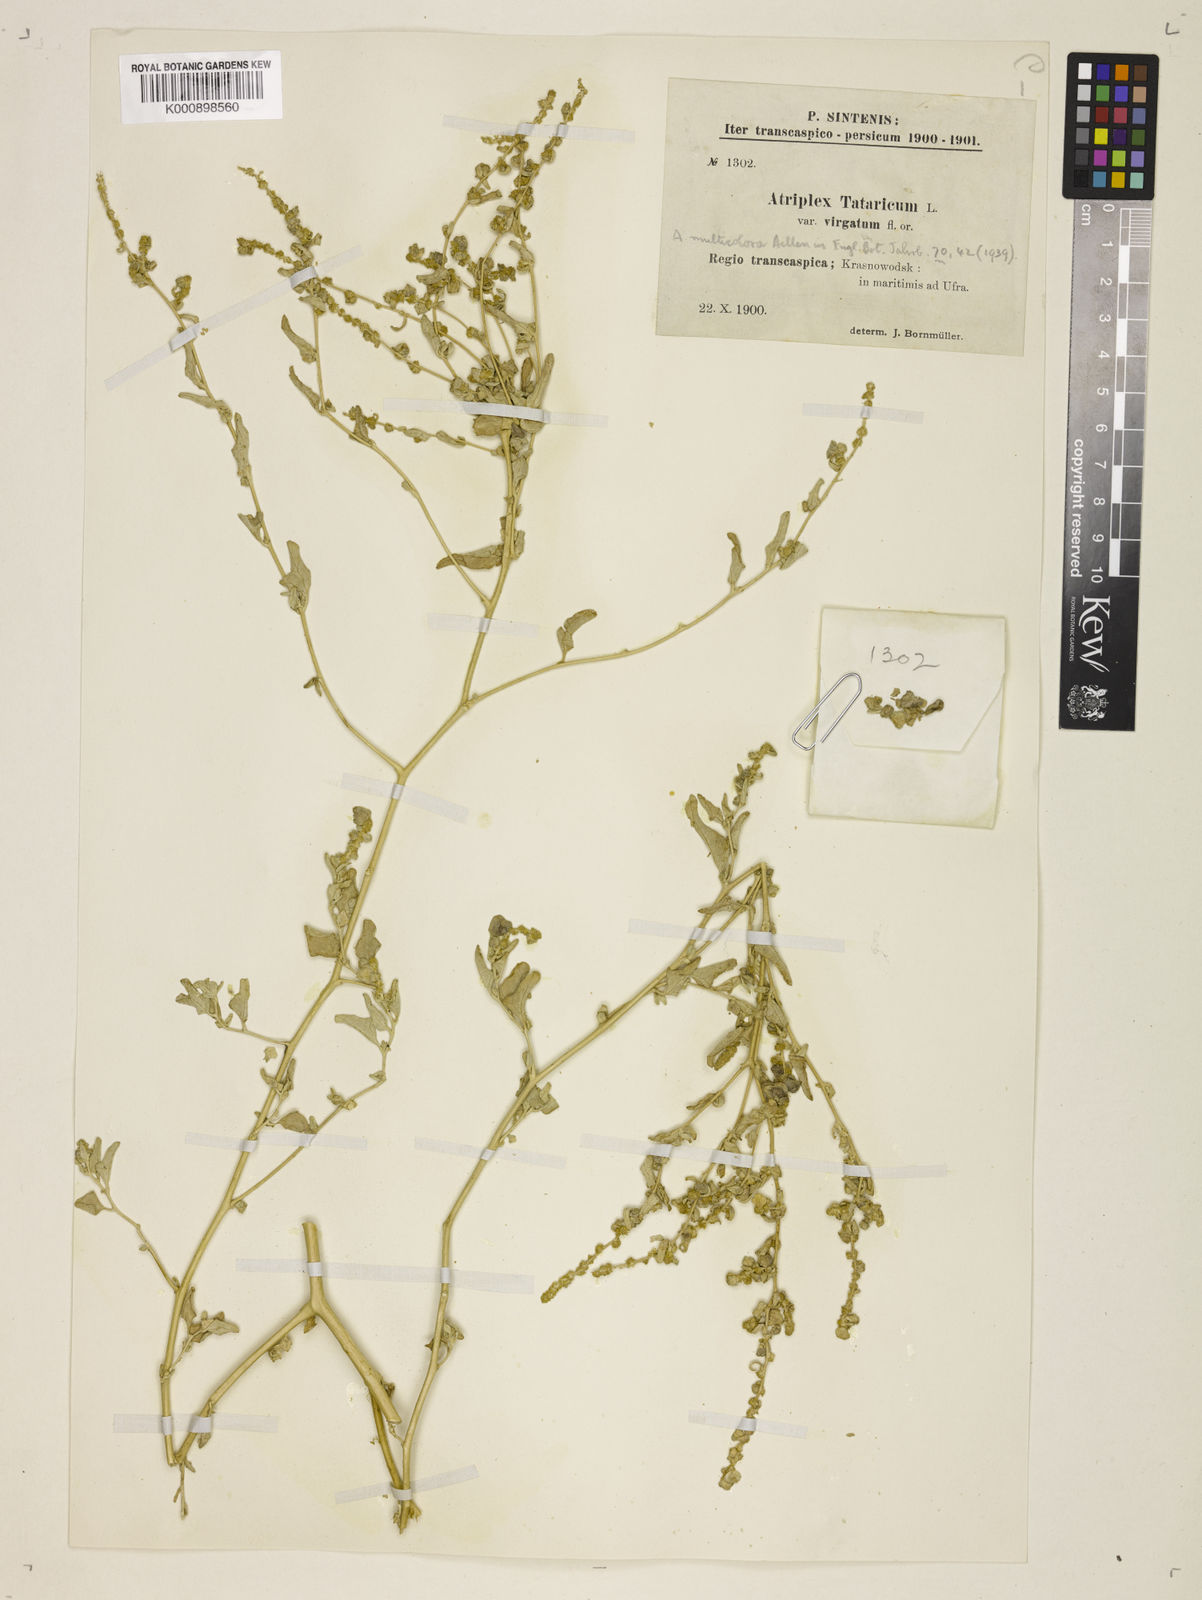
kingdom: Plantae
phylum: Tracheophyta
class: Magnoliopsida
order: Caryophyllales
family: Amaranthaceae
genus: Atriplex
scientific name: Atriplex tatarica
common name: Tatarian orache
